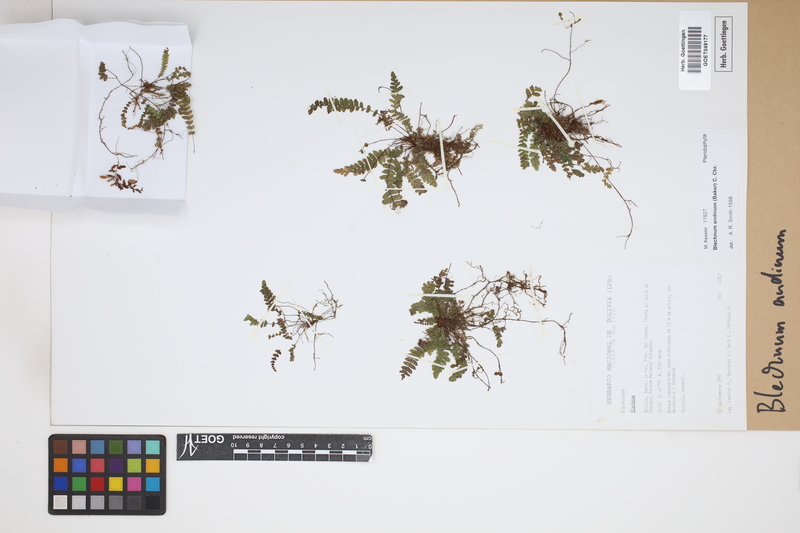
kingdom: Plantae
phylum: Tracheophyta
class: Polypodiopsida
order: Polypodiales
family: Blechnaceae
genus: Austroblechnum
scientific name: Austroblechnum andinum
